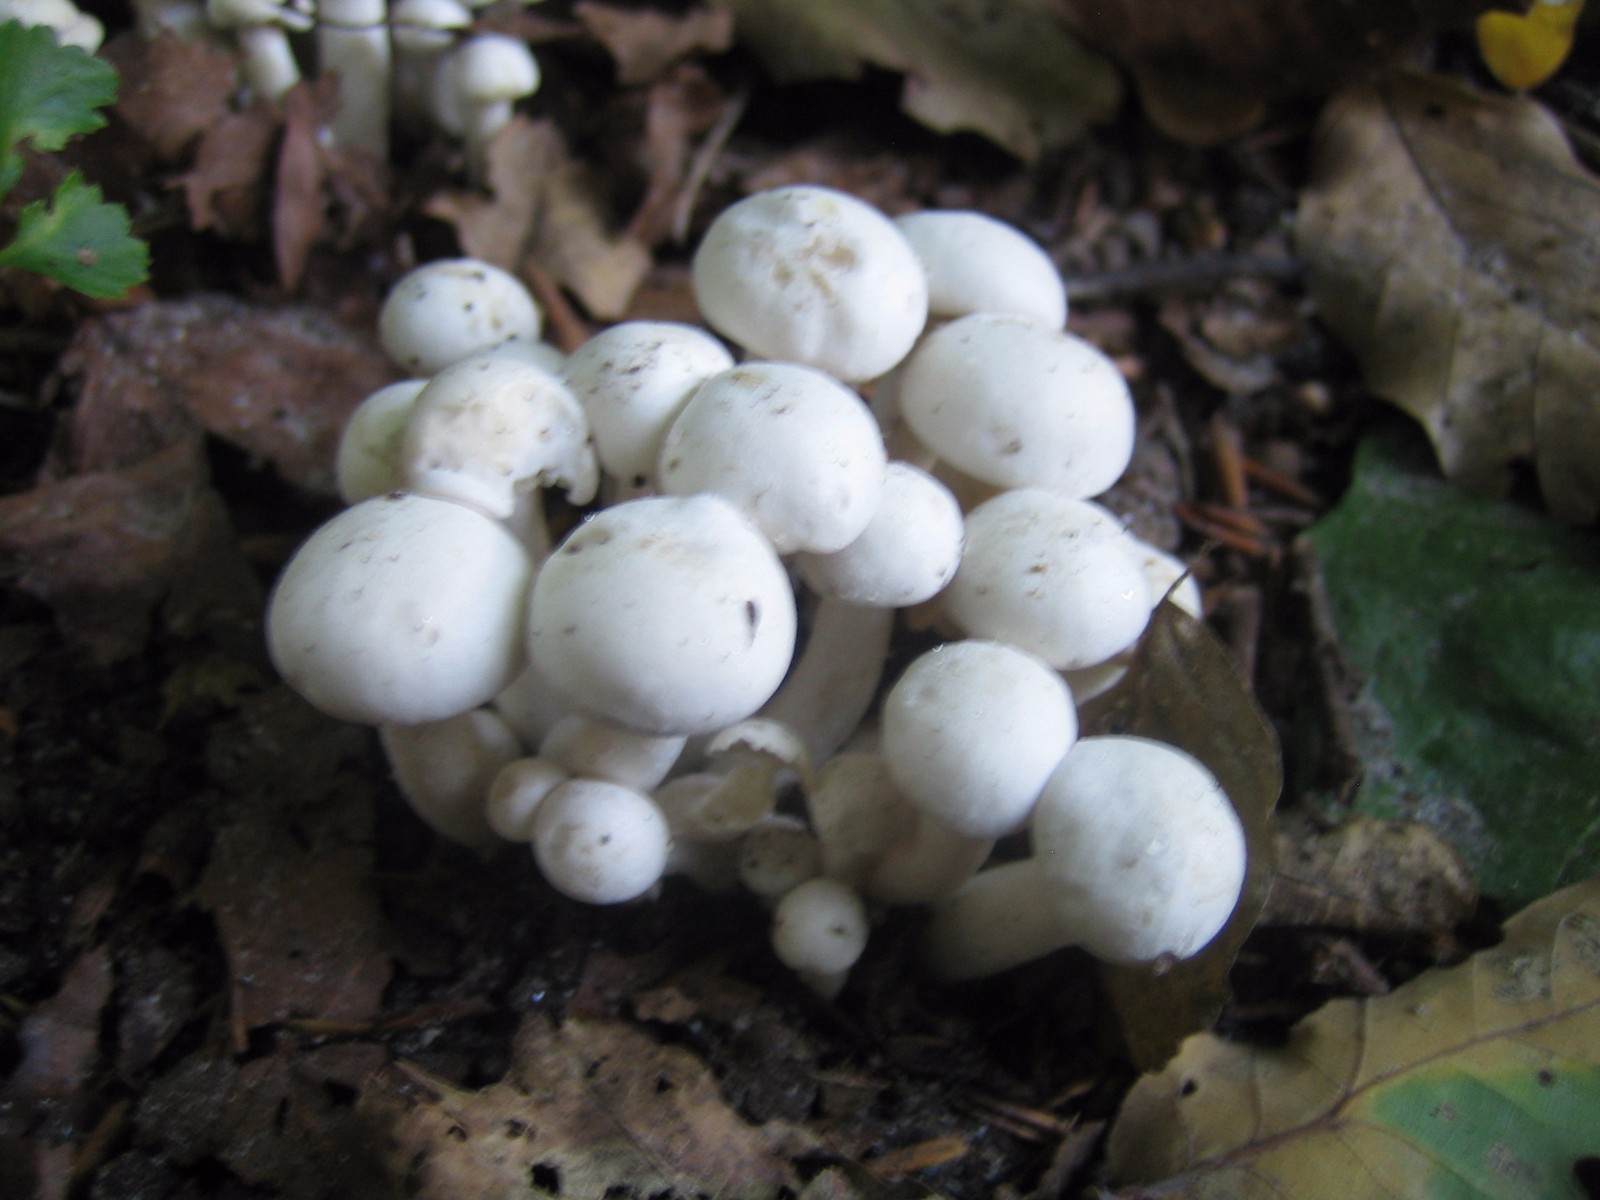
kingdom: Fungi
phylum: Basidiomycota
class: Agaricomycetes
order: Agaricales
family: Tricholomataceae
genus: Leucocybe
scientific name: Leucocybe connata
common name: knippe-tragthat
